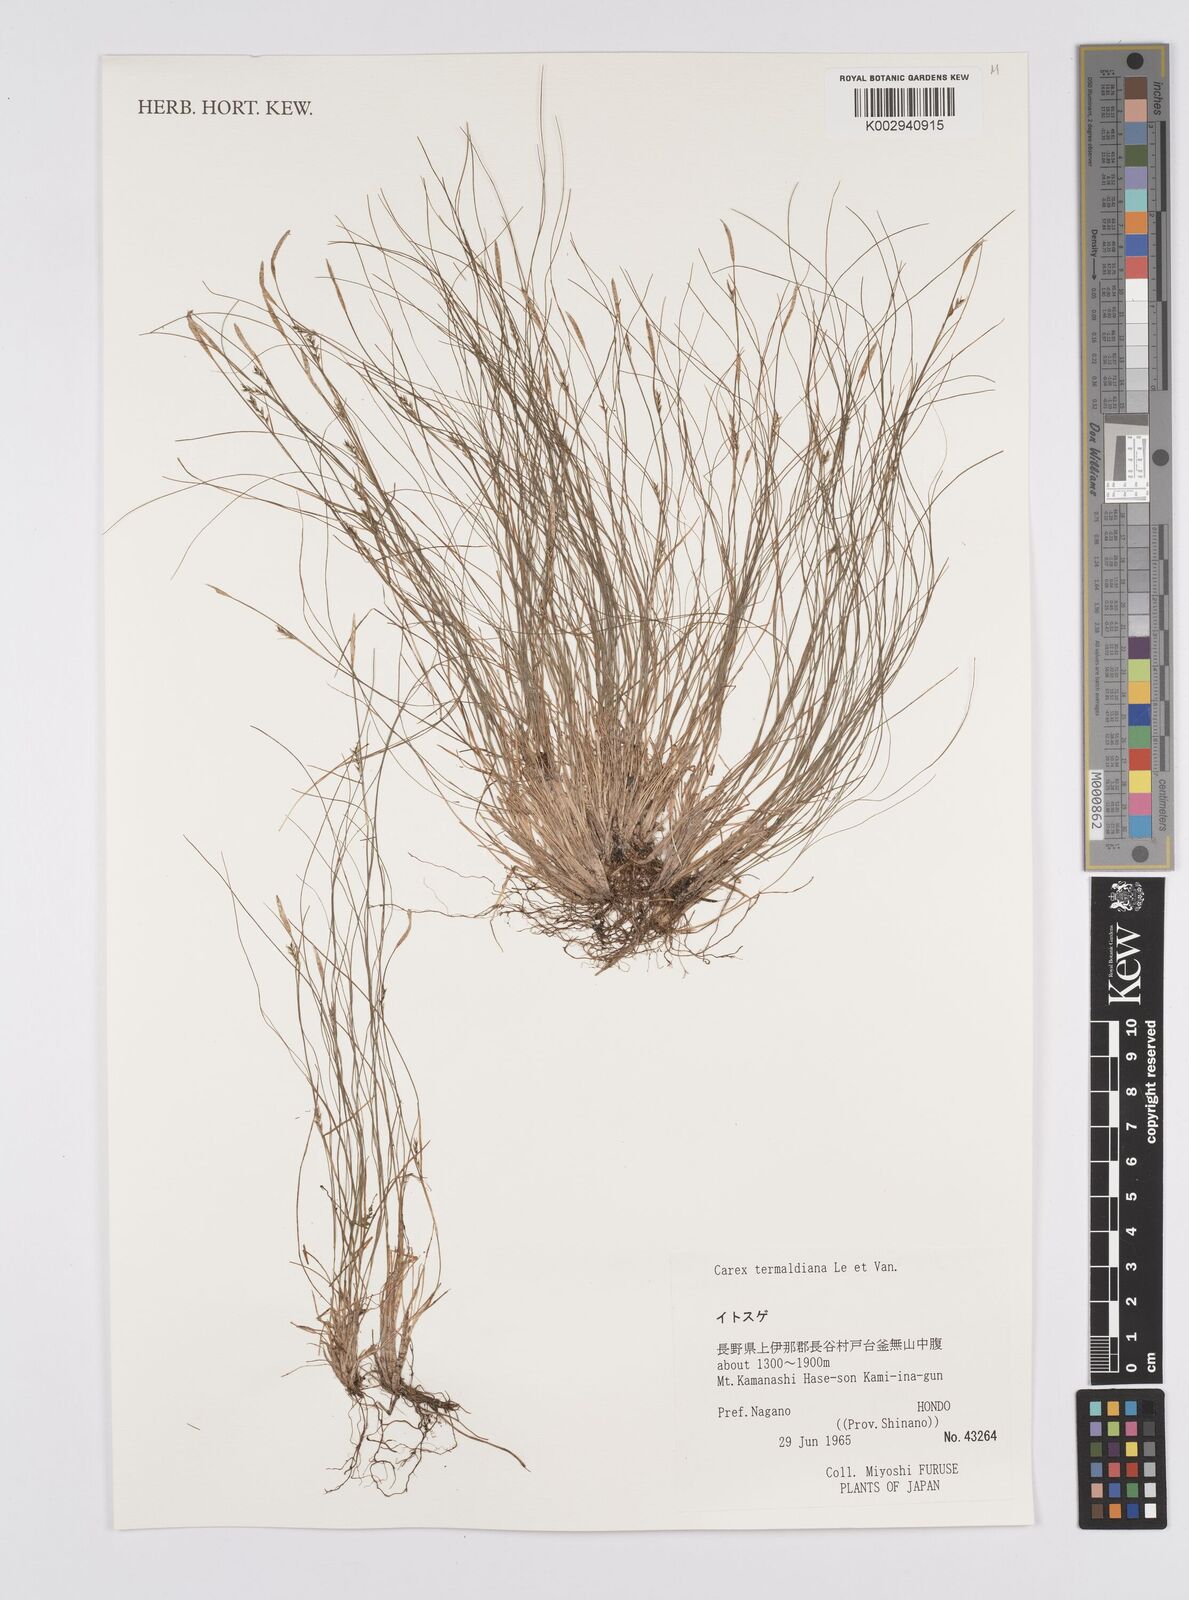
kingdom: Plantae
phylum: Tracheophyta
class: Liliopsida
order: Poales
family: Cyperaceae
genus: Carex
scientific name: Carex breviculmis
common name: Asian shortstem sedge
